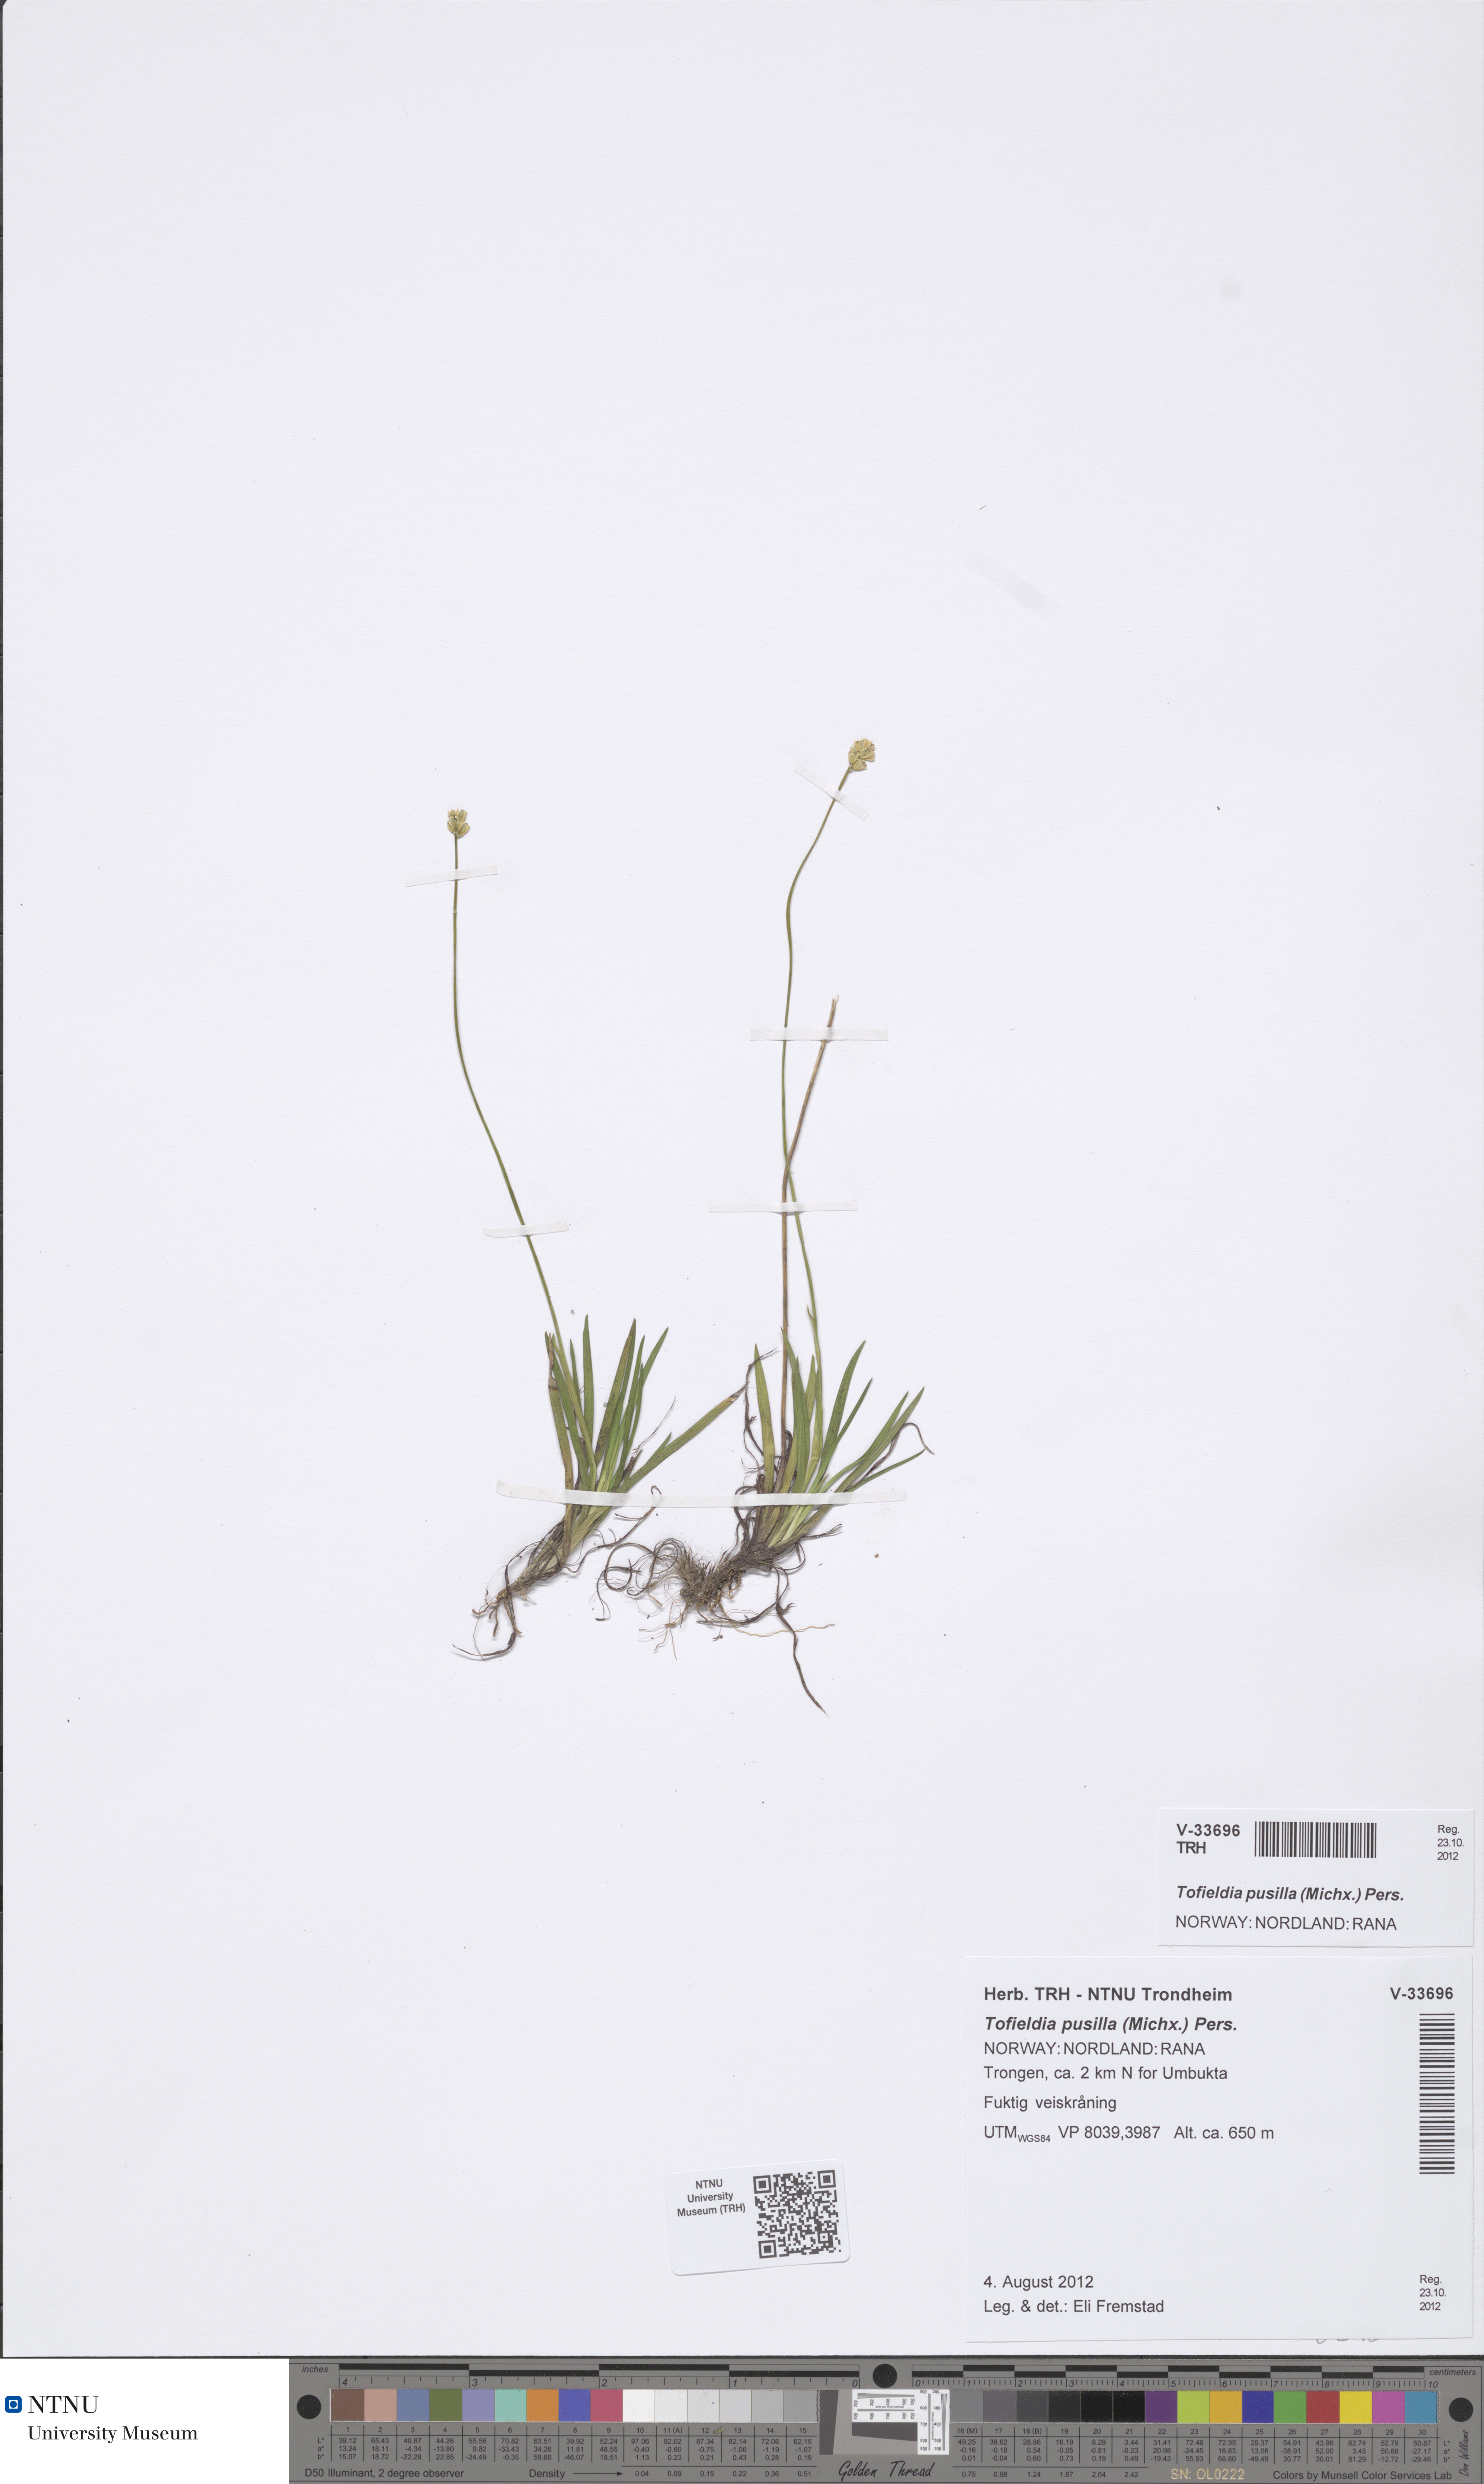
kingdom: Plantae
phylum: Tracheophyta
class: Liliopsida
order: Alismatales
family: Tofieldiaceae
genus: Tofieldia
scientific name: Tofieldia pusilla
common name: Scottish false asphodel
